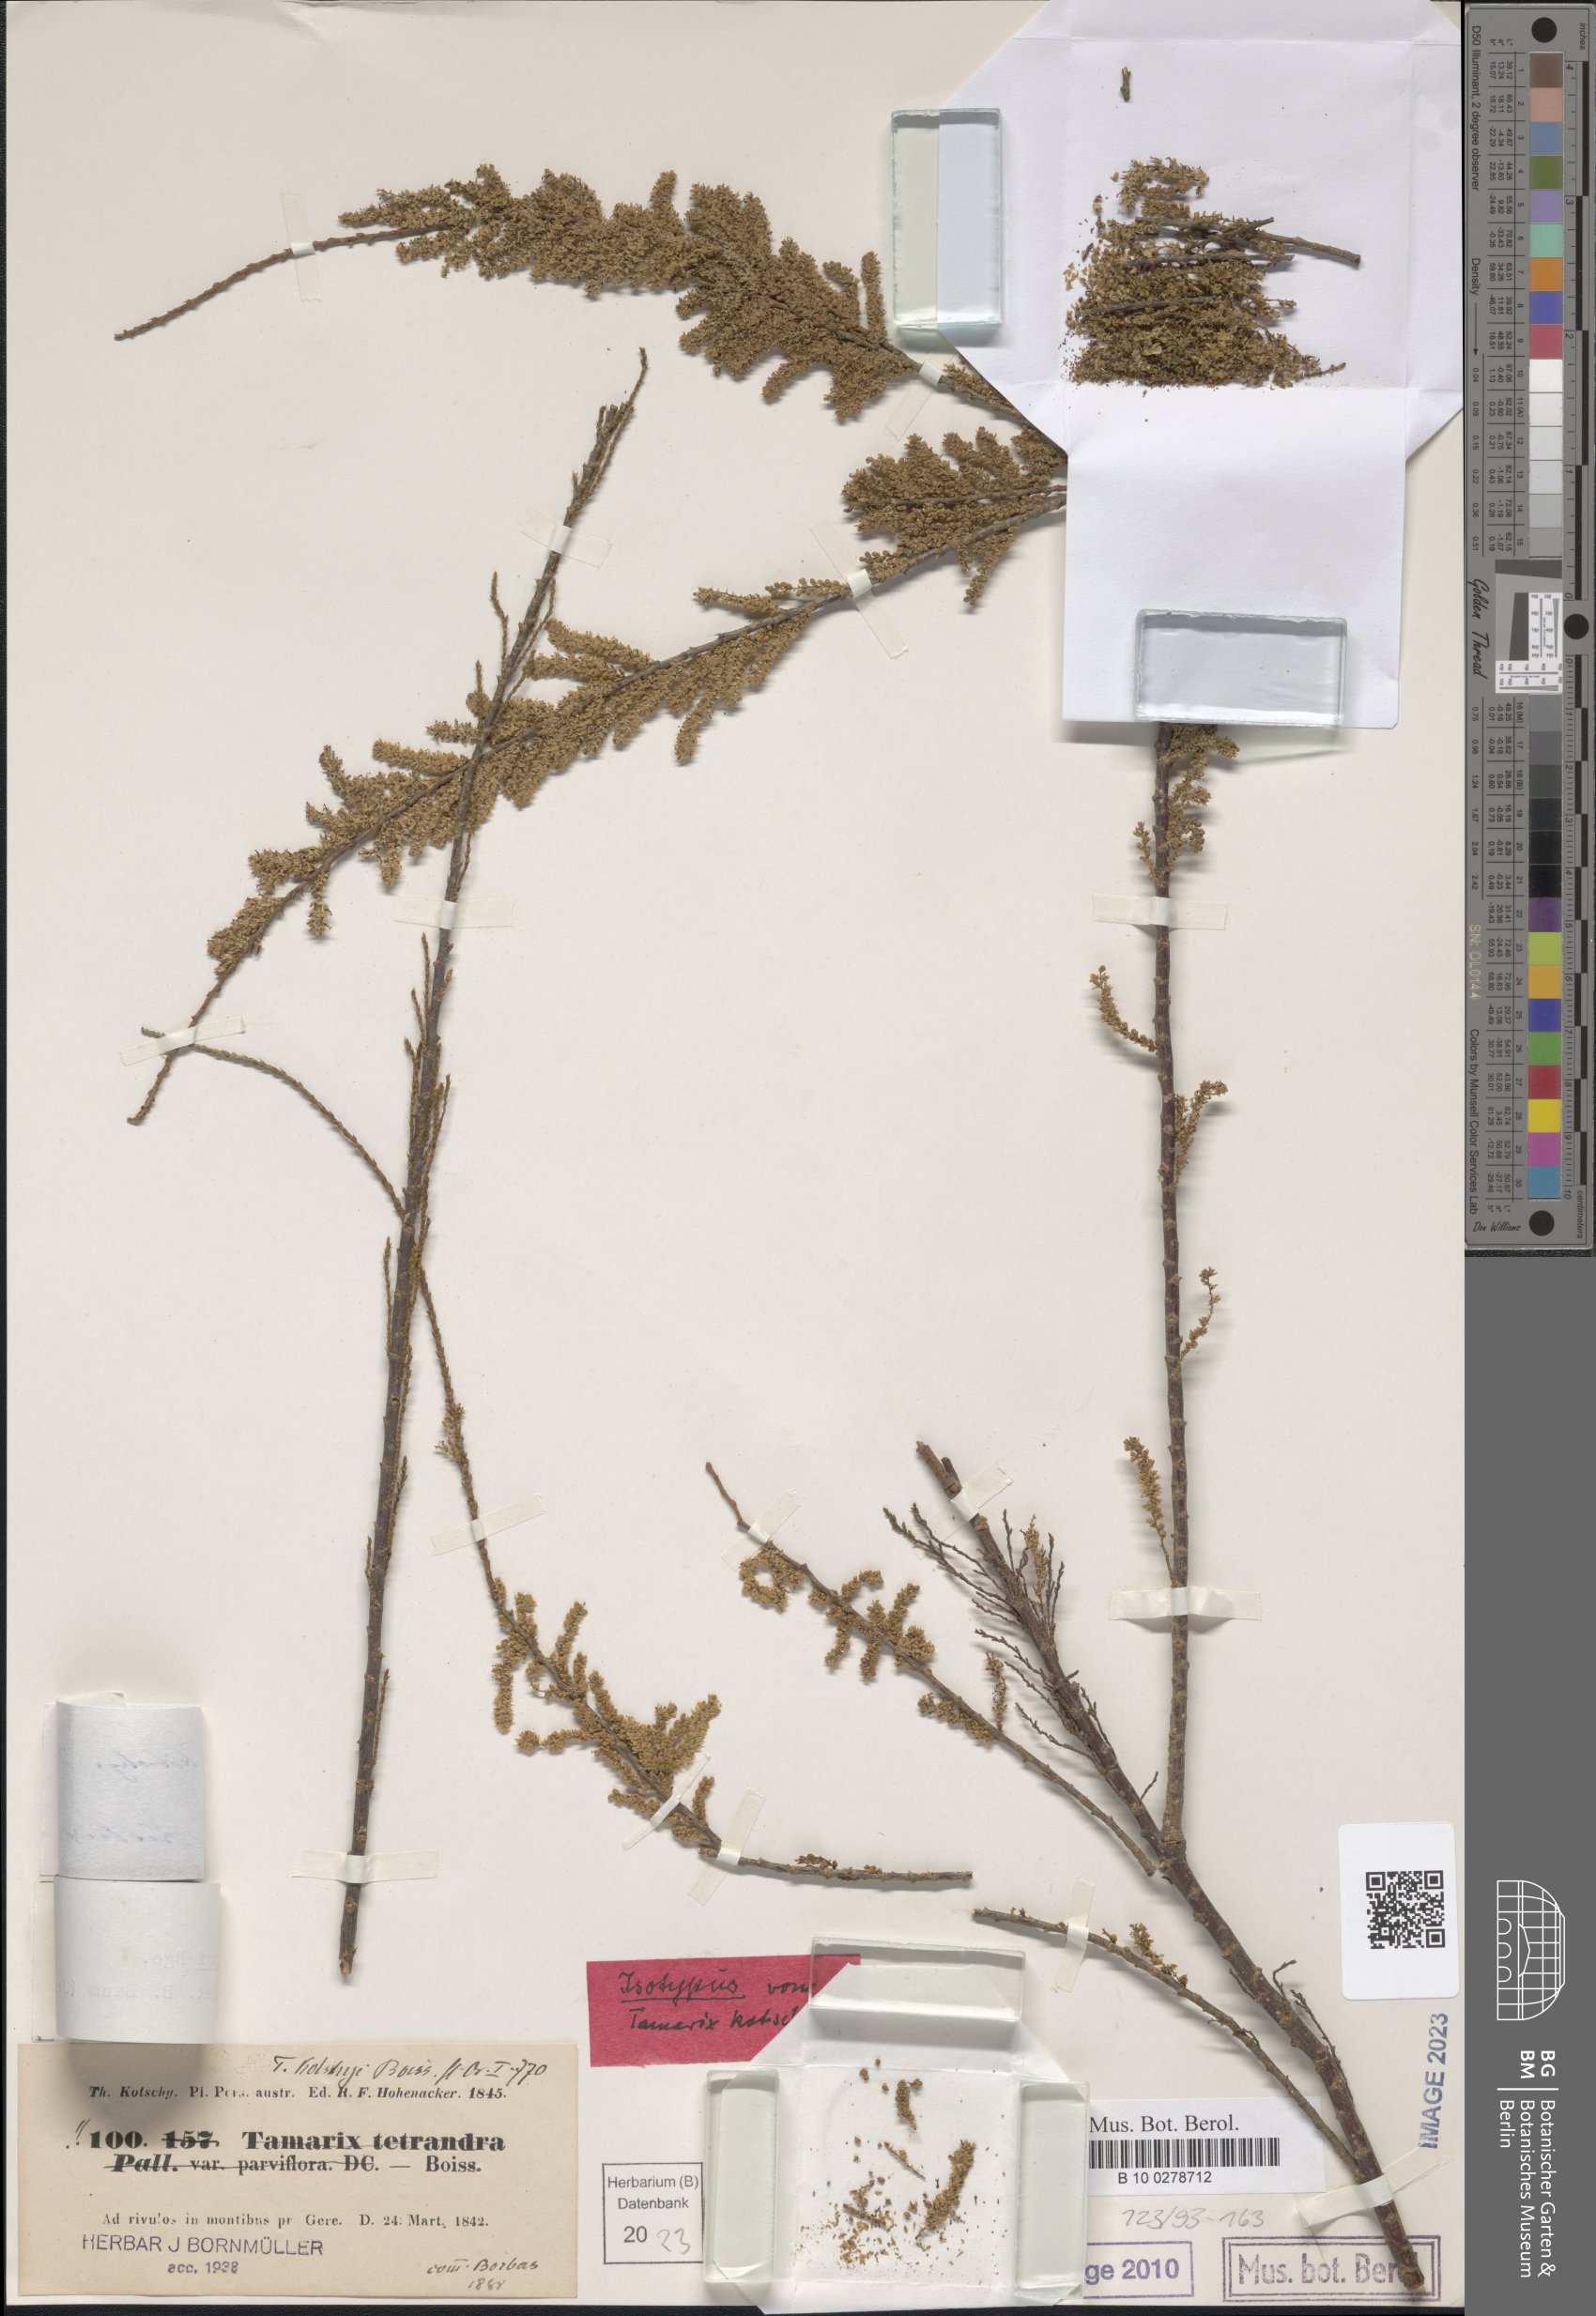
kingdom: Plantae
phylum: Tracheophyta
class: Magnoliopsida
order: Caryophyllales
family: Tamaricaceae
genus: Tamarix
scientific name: Tamarix kotschyi
